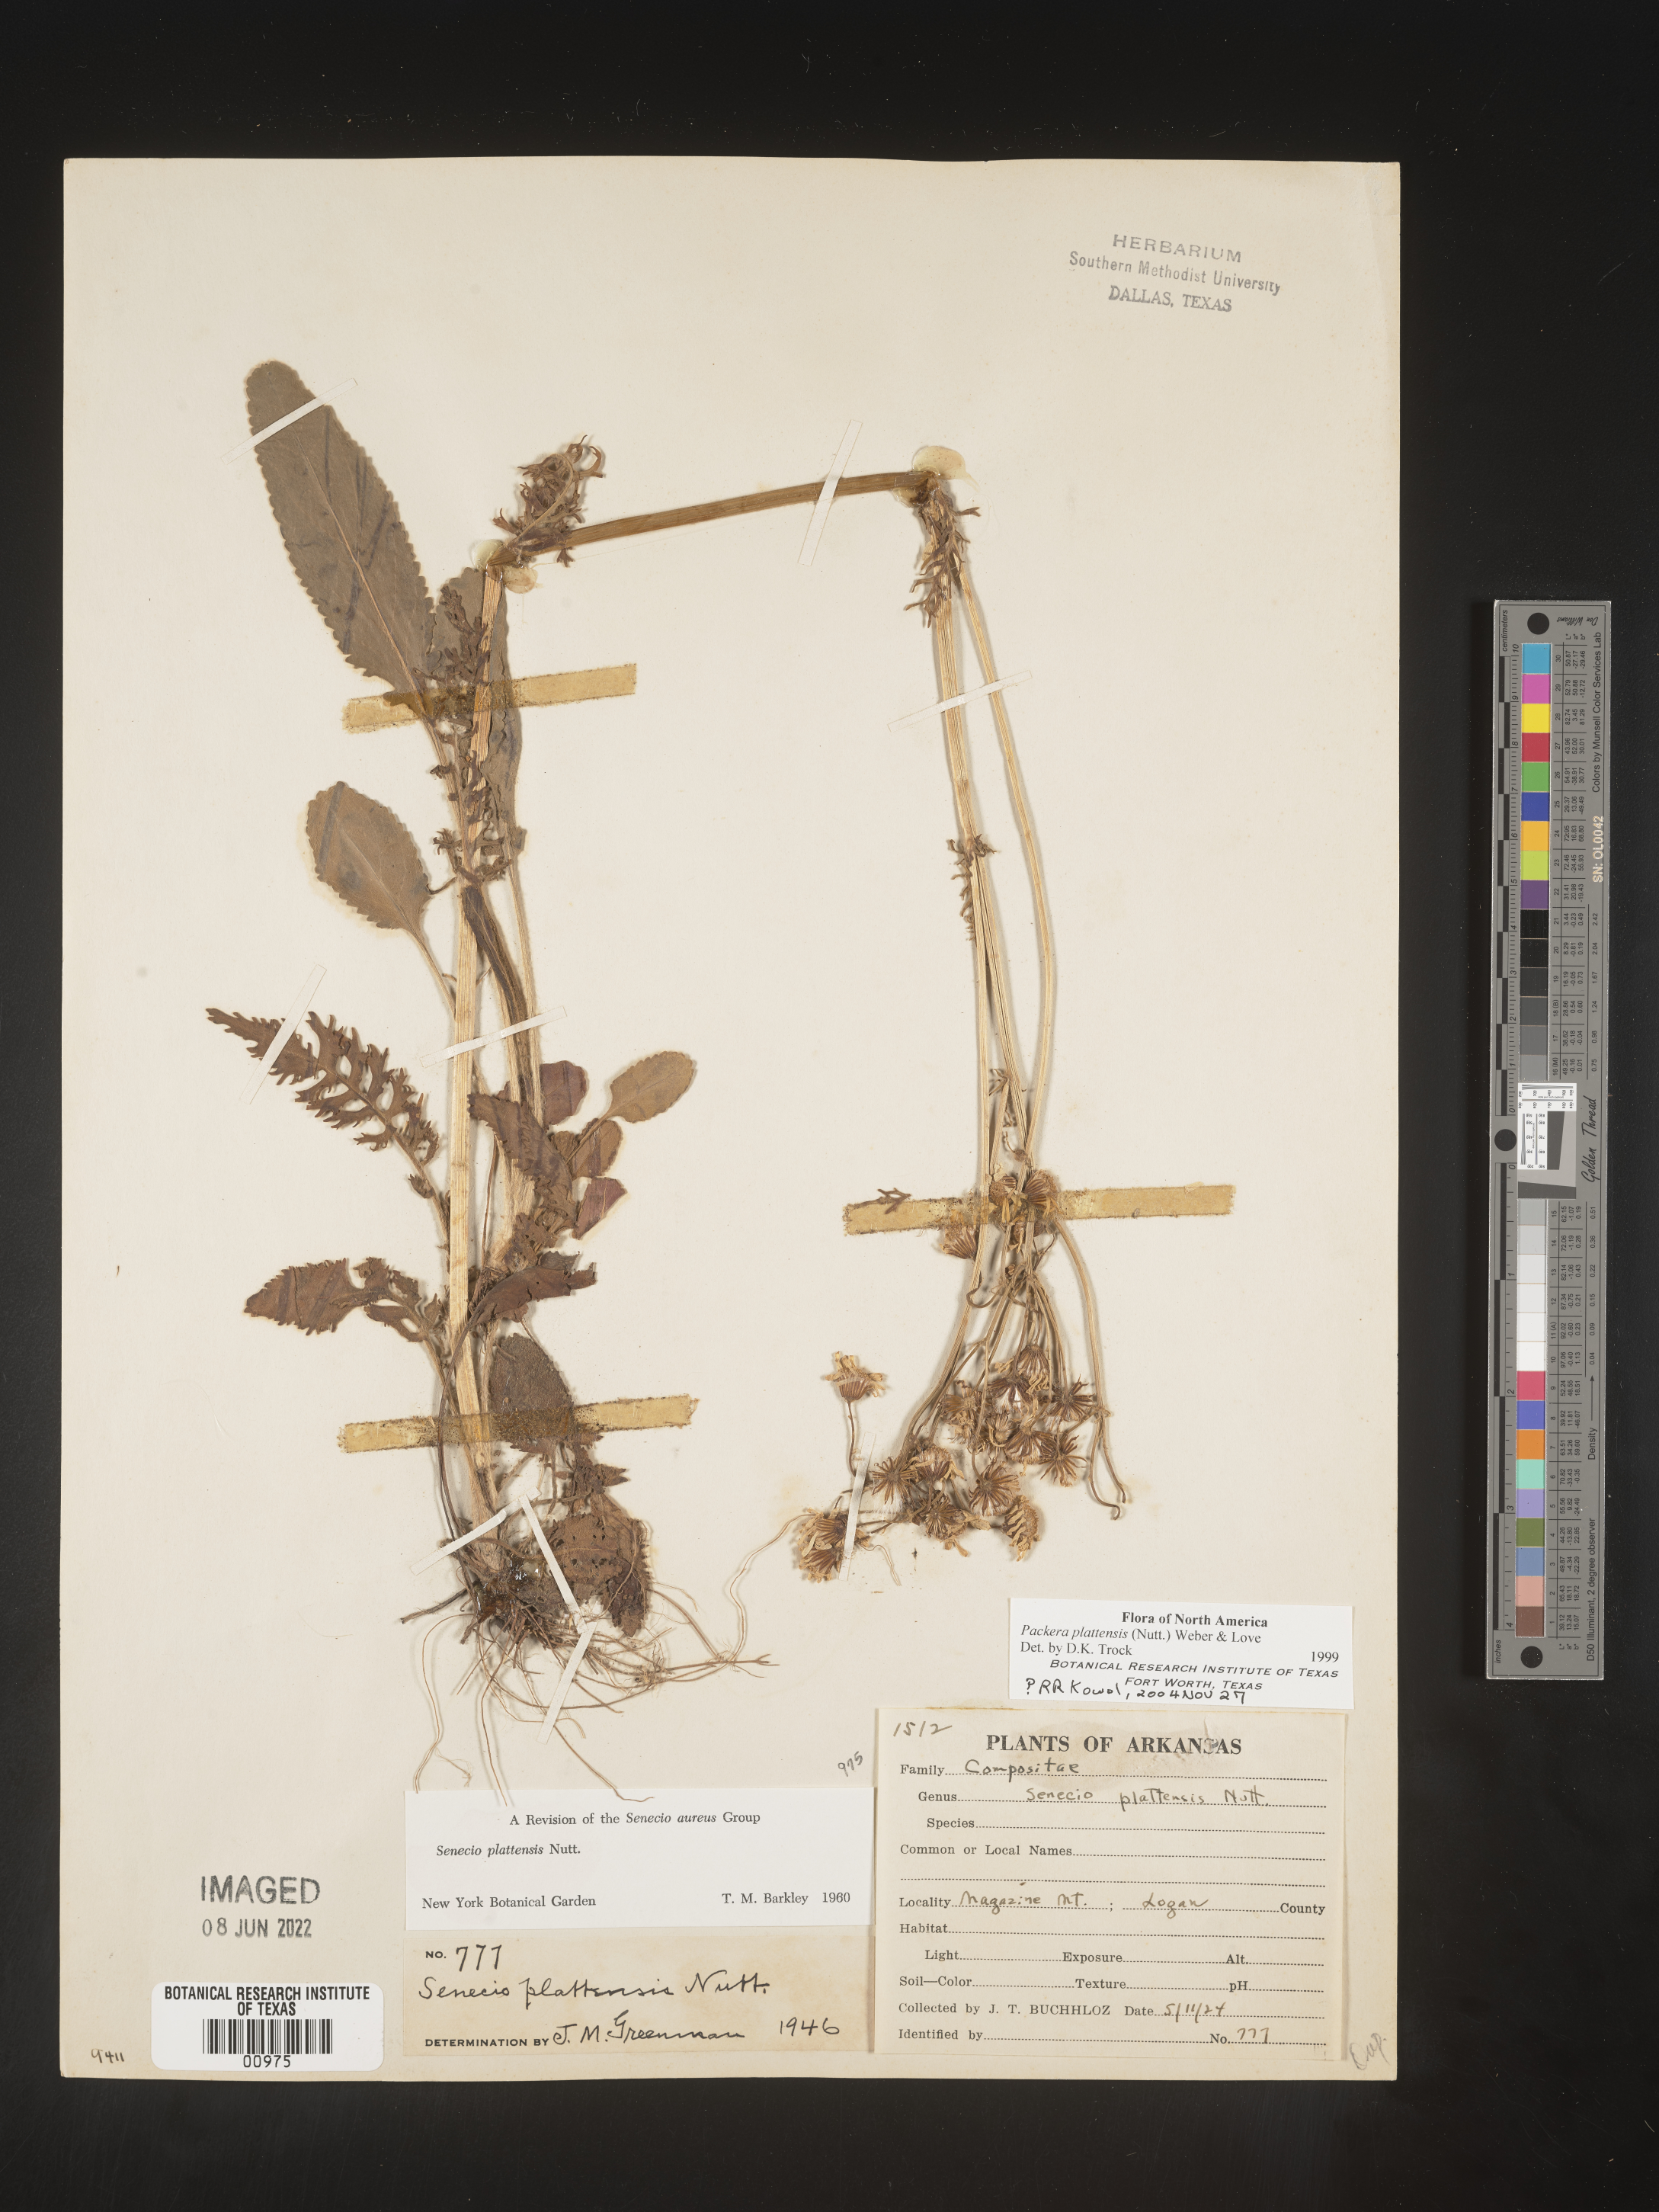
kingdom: Plantae
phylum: Tracheophyta
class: Magnoliopsida
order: Asterales
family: Asteraceae
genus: Packera
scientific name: Packera plattensis
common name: Prairie groundsel
